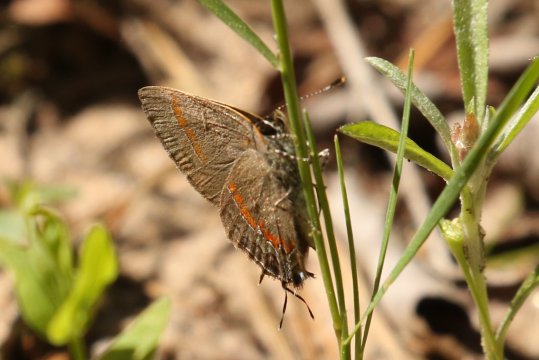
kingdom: Animalia
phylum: Arthropoda
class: Insecta
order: Lepidoptera
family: Lycaenidae
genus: Calycopis
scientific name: Calycopis cecrops
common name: Red-banded Hairstreak
